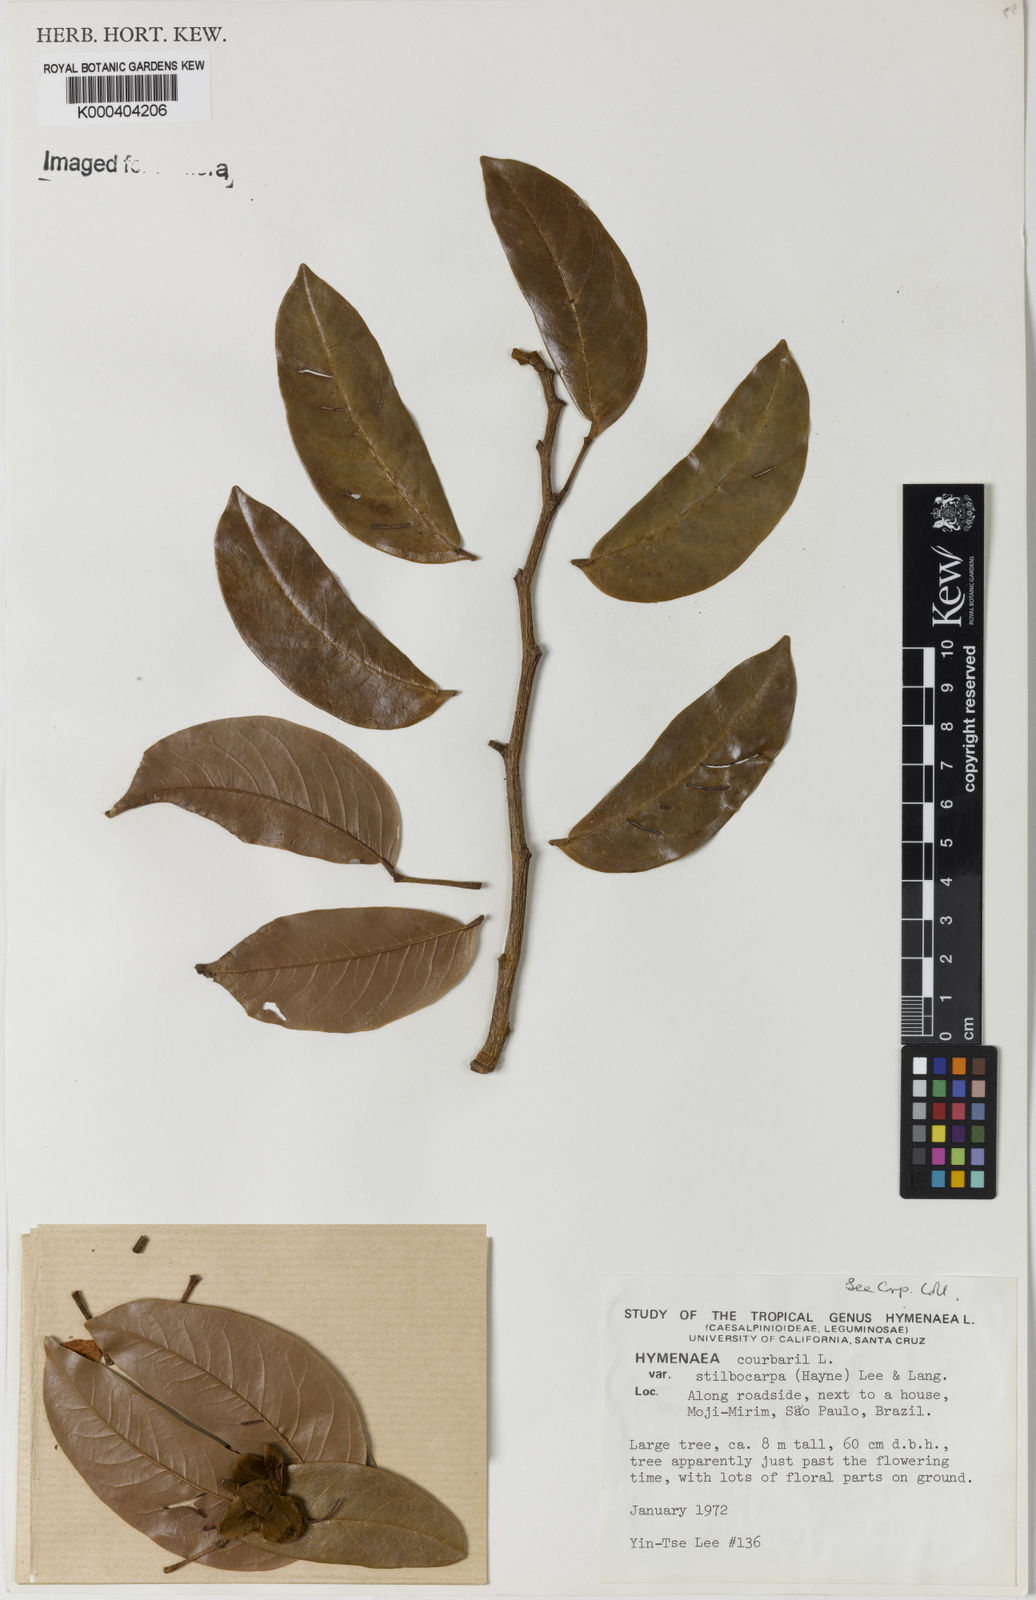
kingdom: Plantae
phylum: Tracheophyta
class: Magnoliopsida
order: Fabales
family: Fabaceae
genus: Hymenaea
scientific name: Hymenaea courbaril
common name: Brazilian copal
